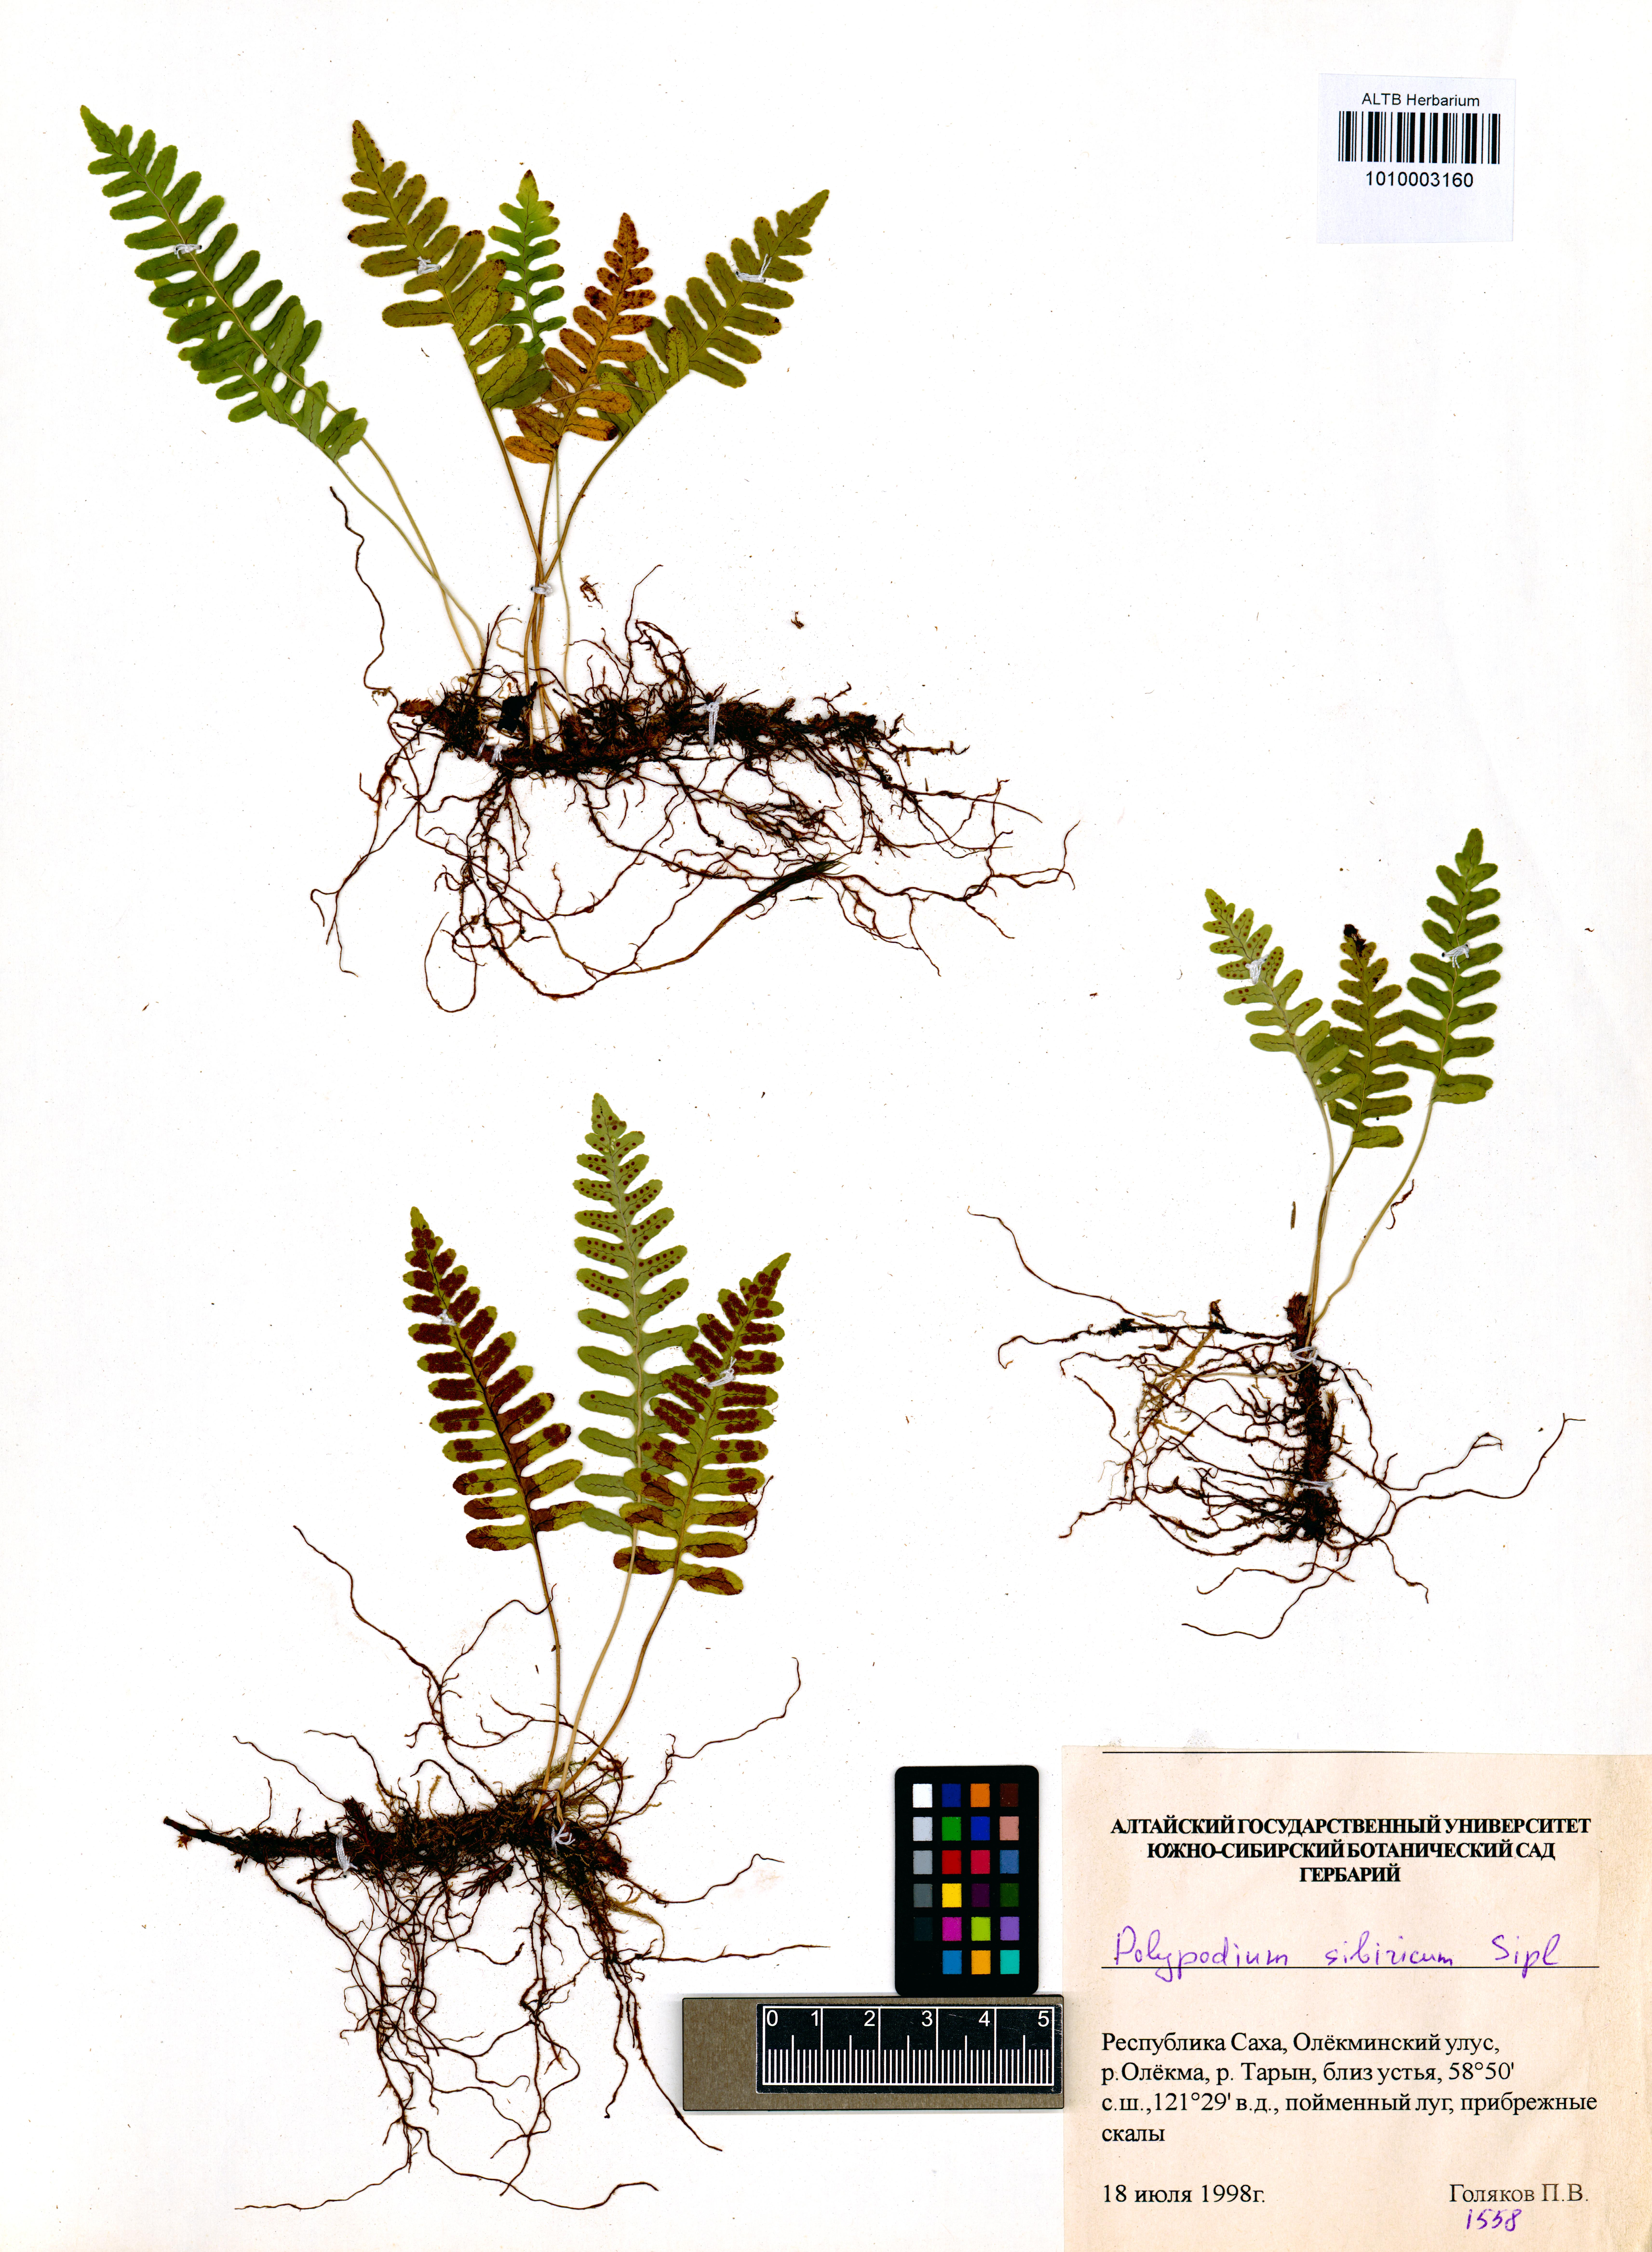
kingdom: Plantae
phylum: Tracheophyta
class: Polypodiopsida
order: Polypodiales
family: Polypodiaceae
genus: Polypodium
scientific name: Polypodium sibiricum
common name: Siberian polypody
